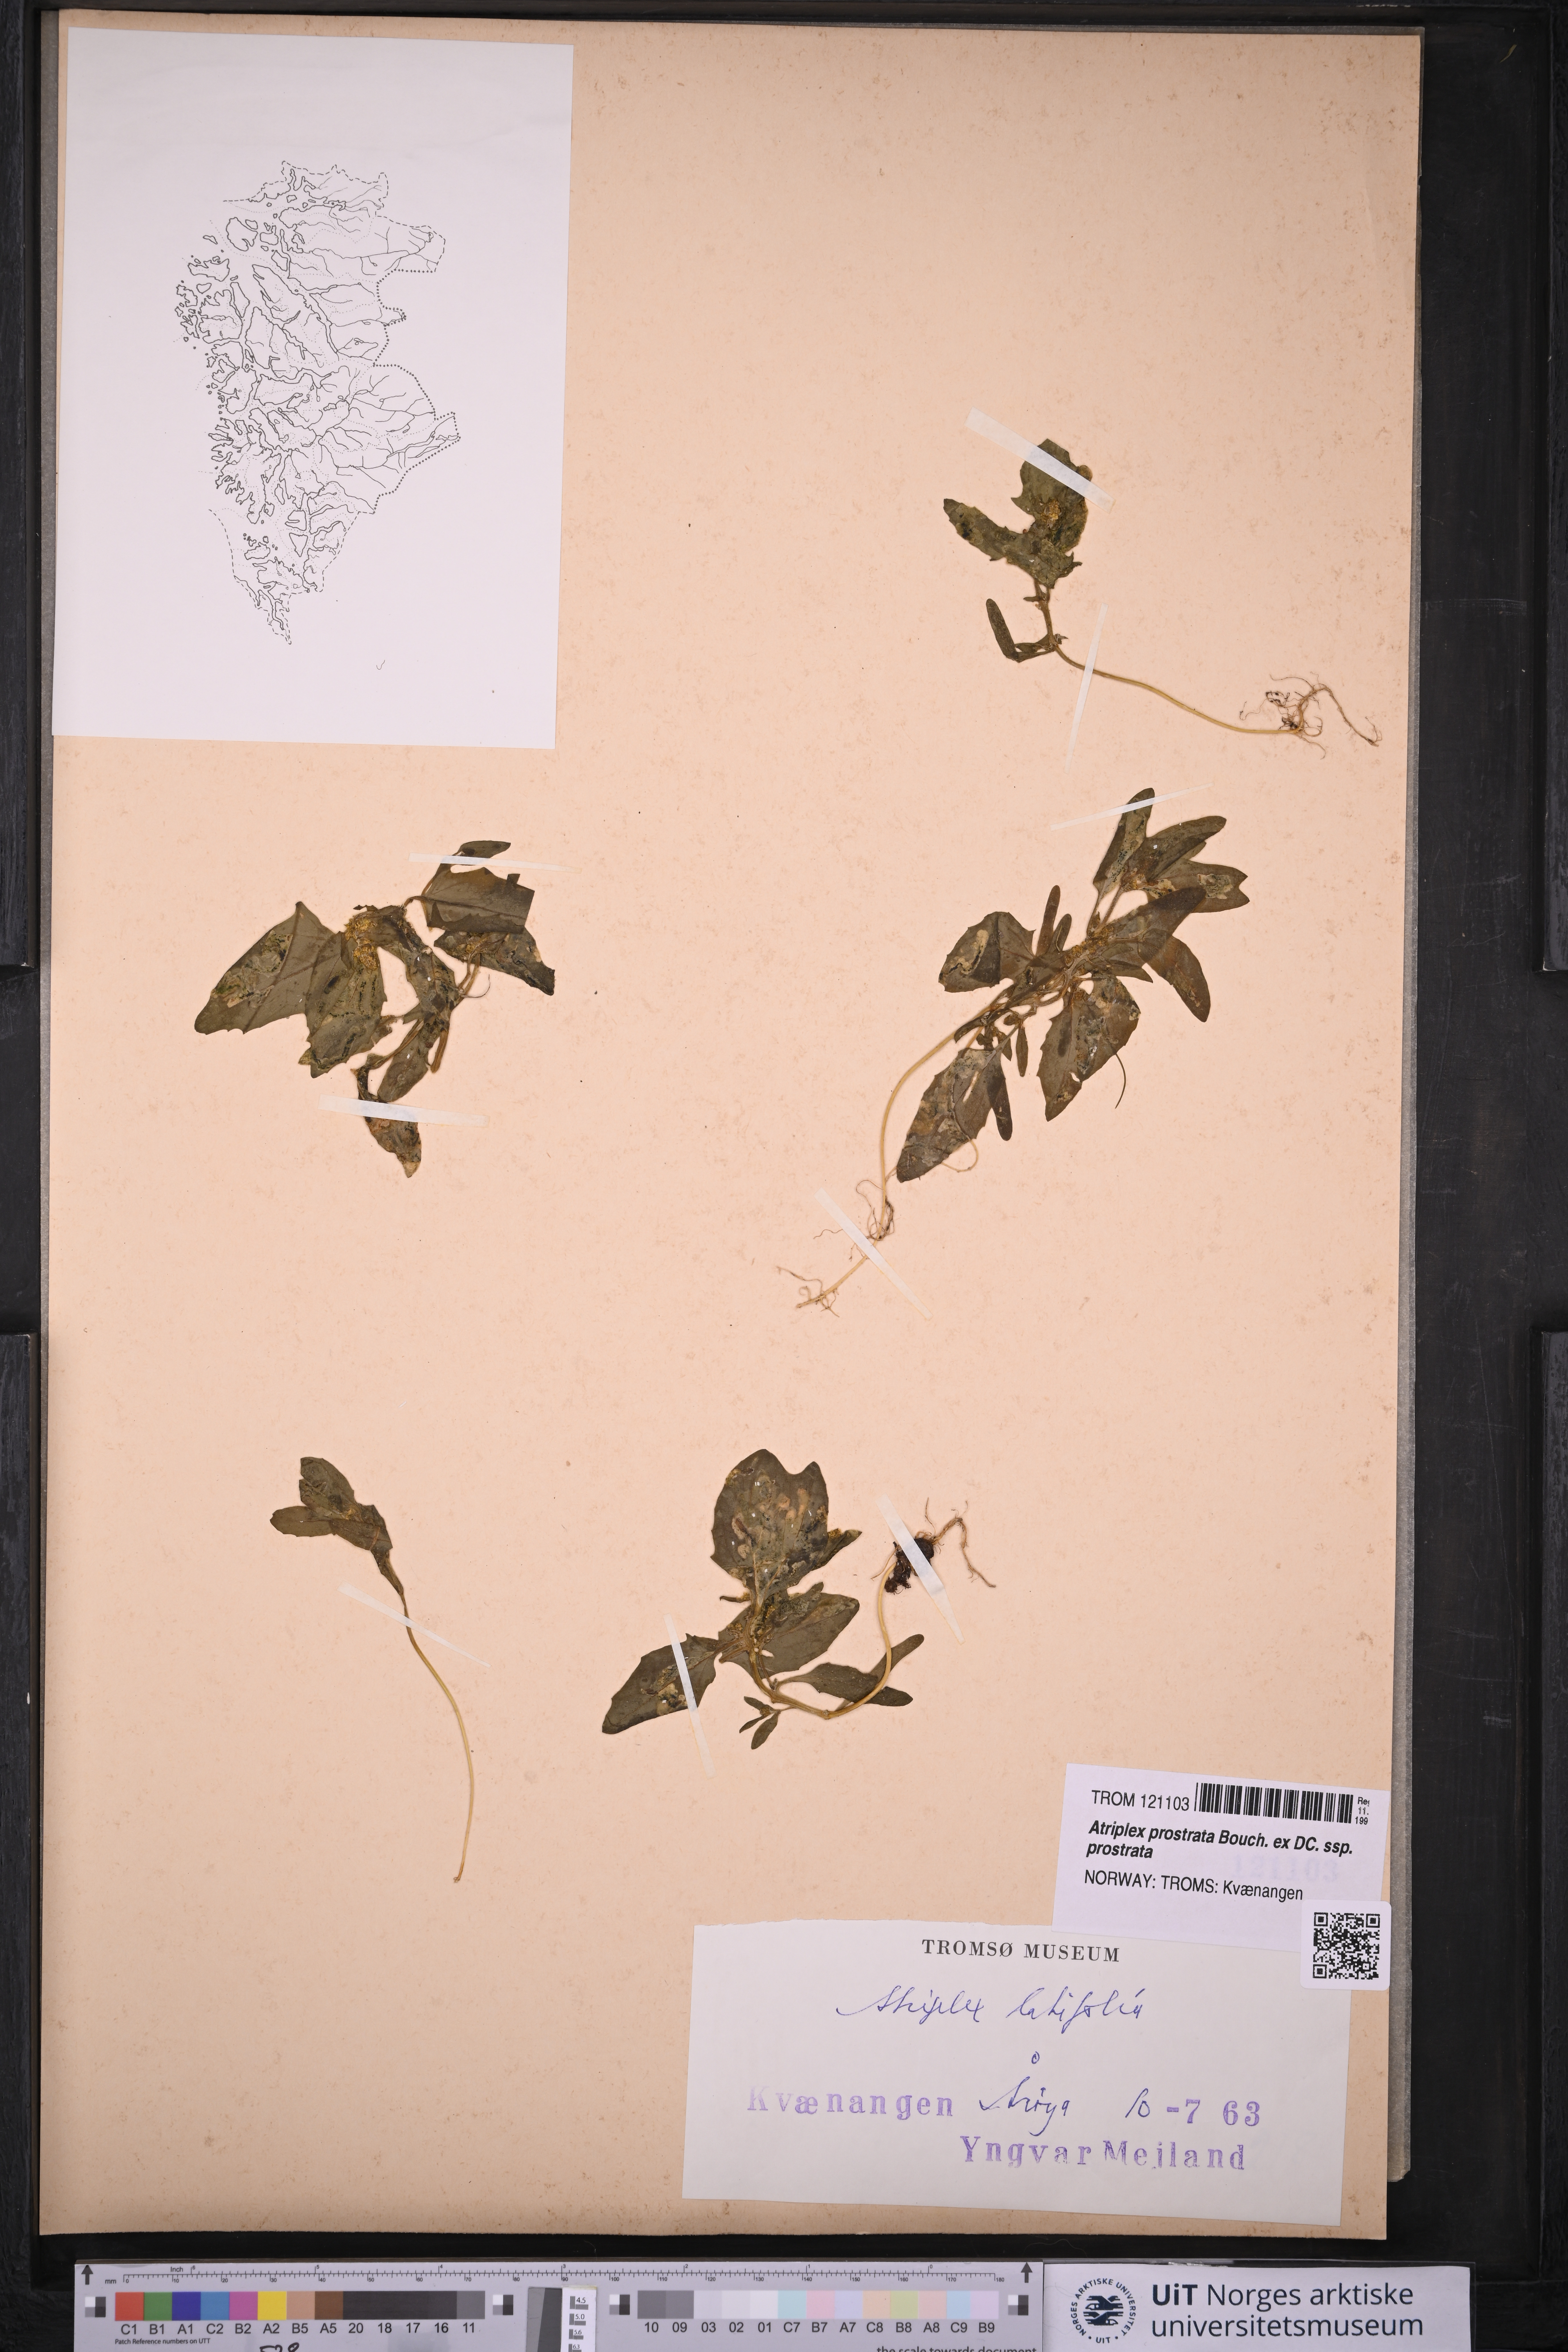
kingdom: Plantae
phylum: Tracheophyta
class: Magnoliopsida
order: Caryophyllales
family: Amaranthaceae
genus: Atriplex
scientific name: Atriplex prostrata
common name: Spear-leaved orache
